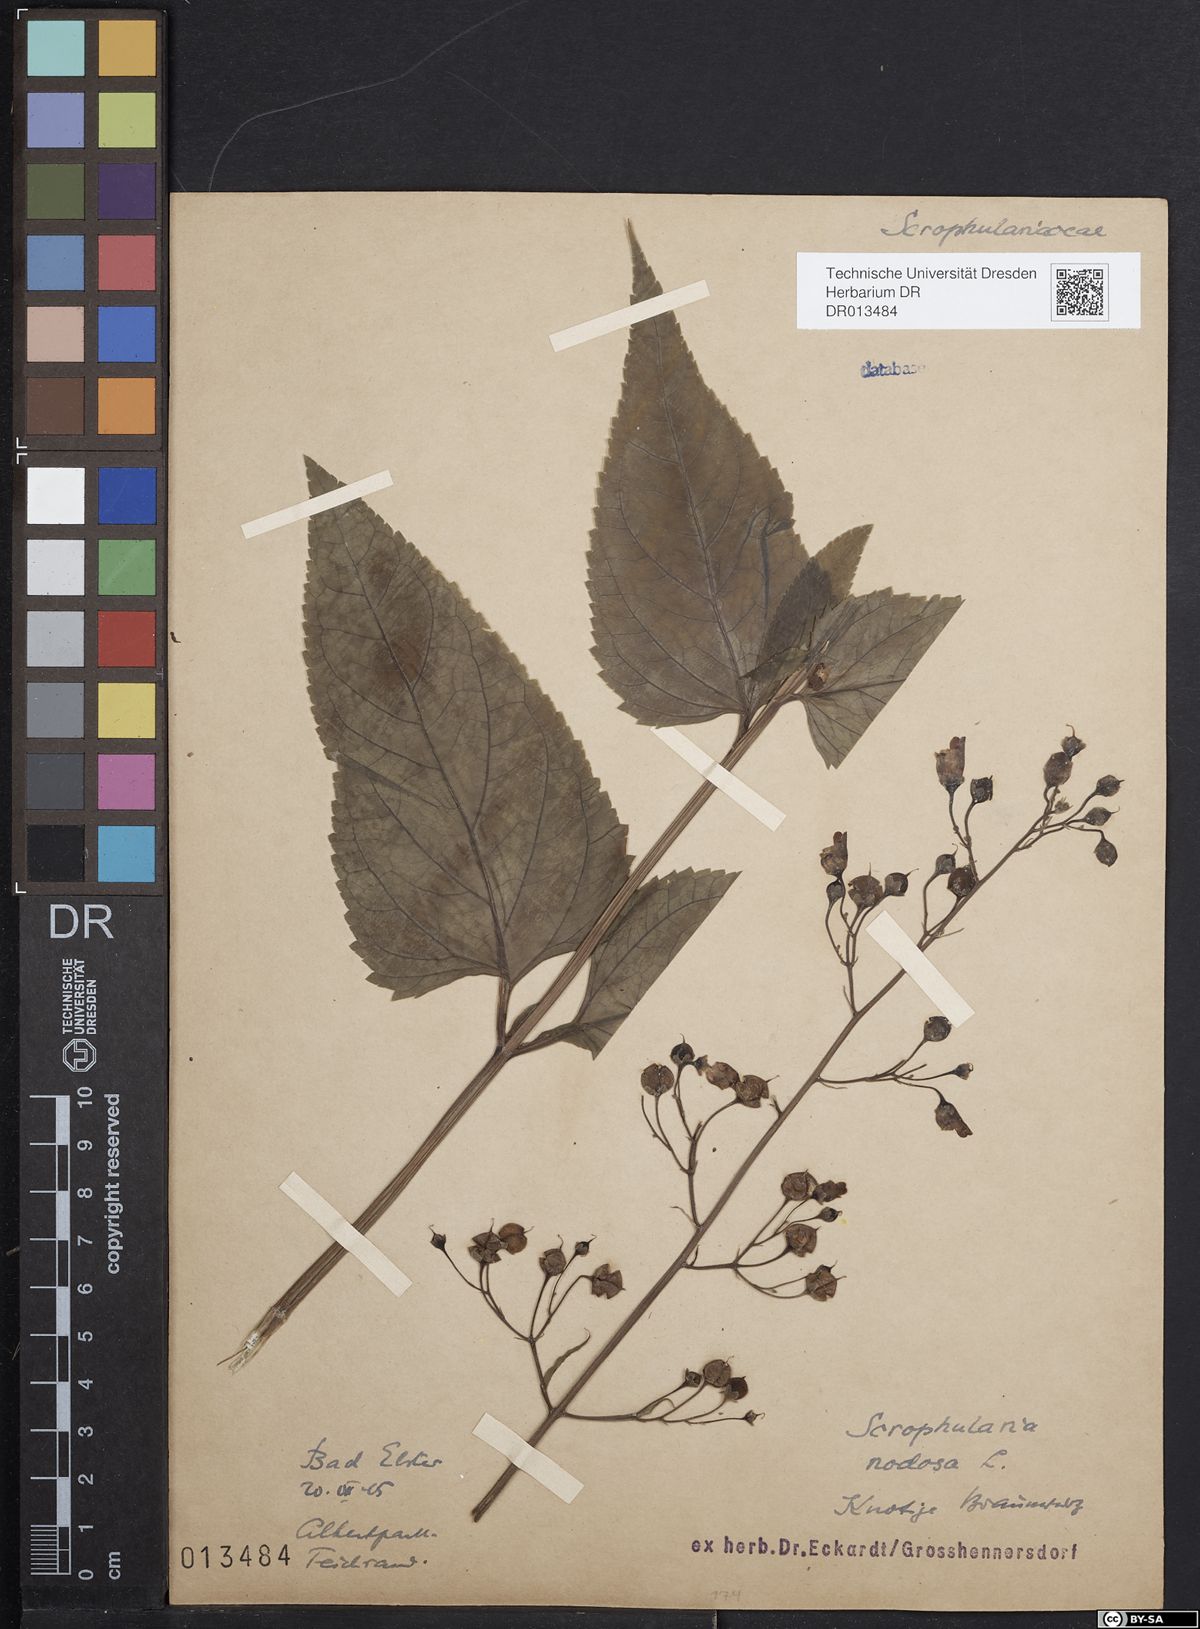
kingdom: Plantae
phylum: Tracheophyta
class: Magnoliopsida
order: Lamiales
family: Scrophulariaceae
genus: Scrophularia
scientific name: Scrophularia nodosa
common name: Common figwort
